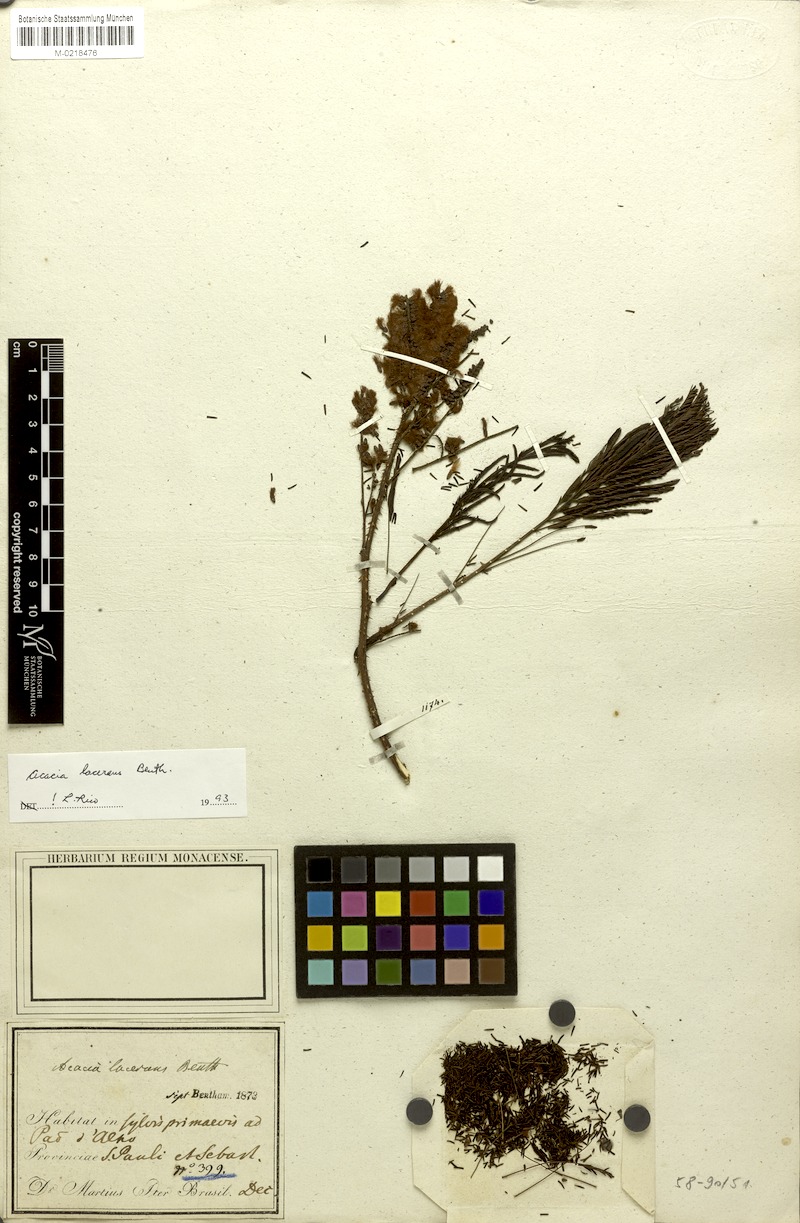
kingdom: Plantae
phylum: Tracheophyta
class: Magnoliopsida
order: Fabales
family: Fabaceae
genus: Senegalia
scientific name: Senegalia lacerans
